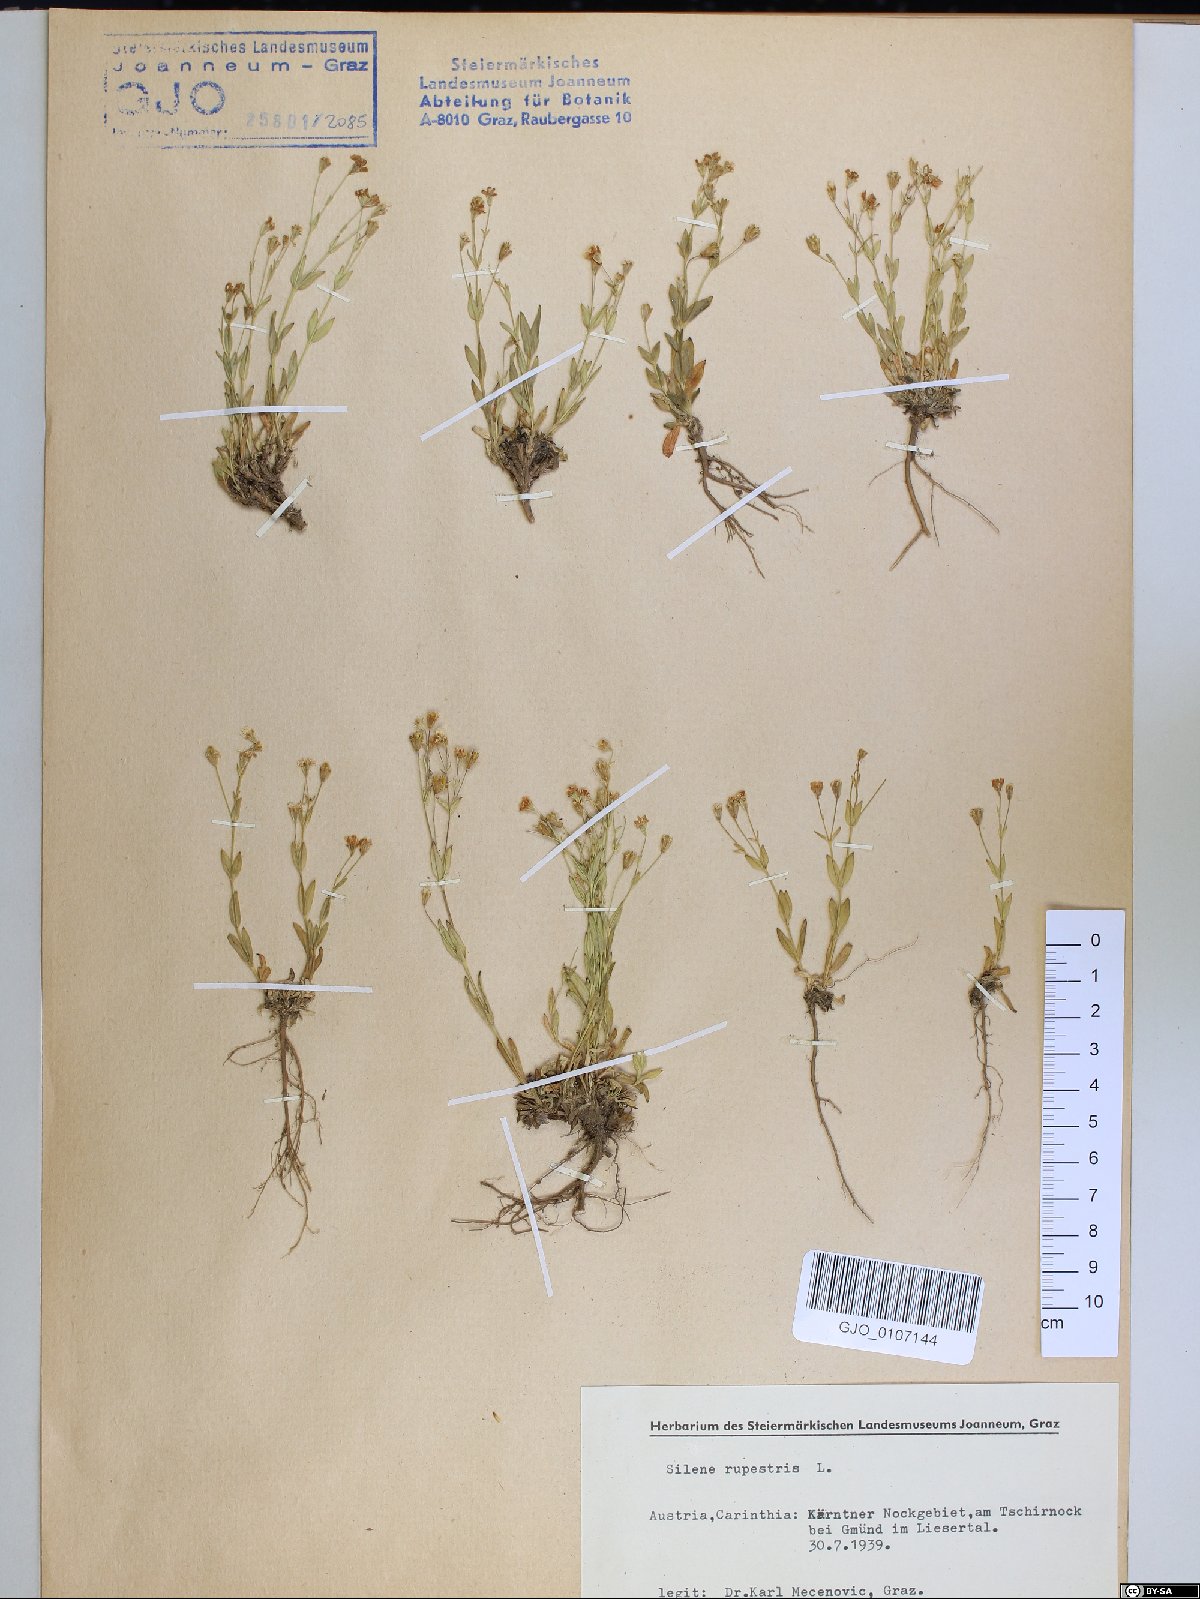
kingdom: Plantae
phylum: Tracheophyta
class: Magnoliopsida
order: Caryophyllales
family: Caryophyllaceae
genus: Atocion
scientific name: Atocion rupestre
